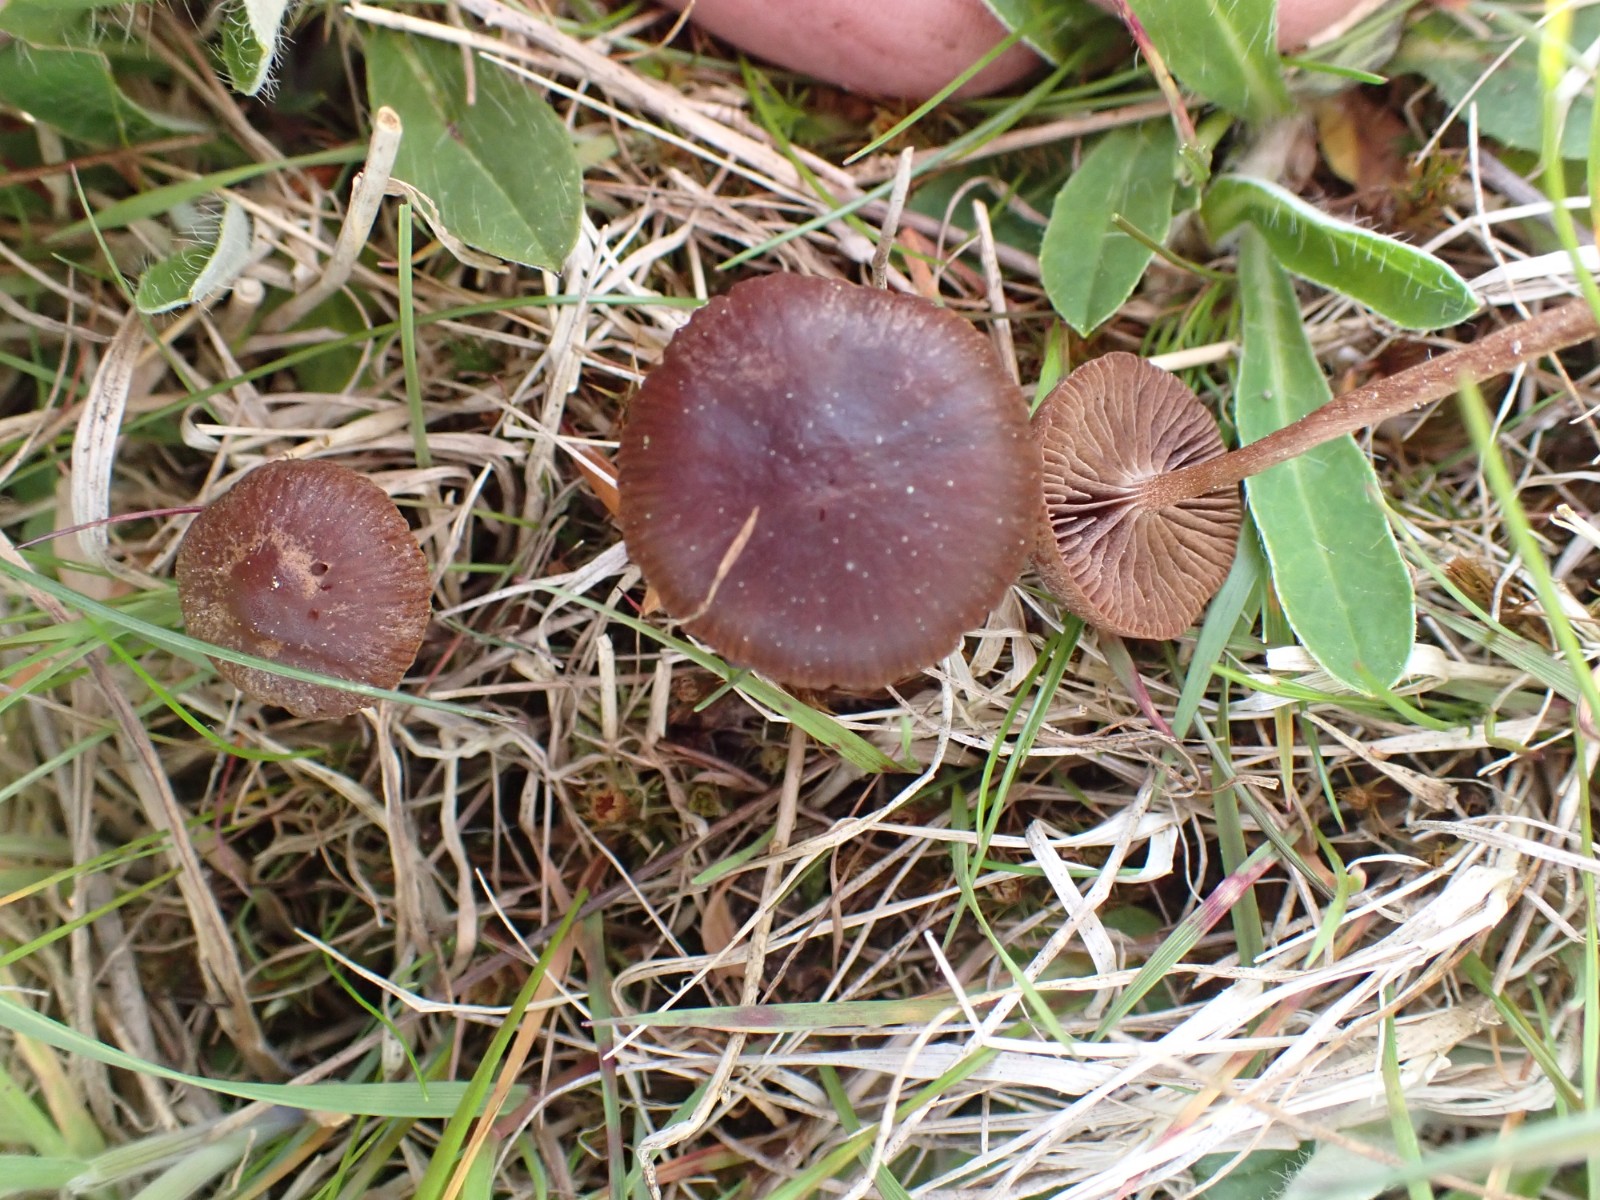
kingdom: Fungi
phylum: Basidiomycota
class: Agaricomycetes
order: Agaricales
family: Strophariaceae
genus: Deconica
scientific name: Deconica montana
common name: rødbrun stråhat
